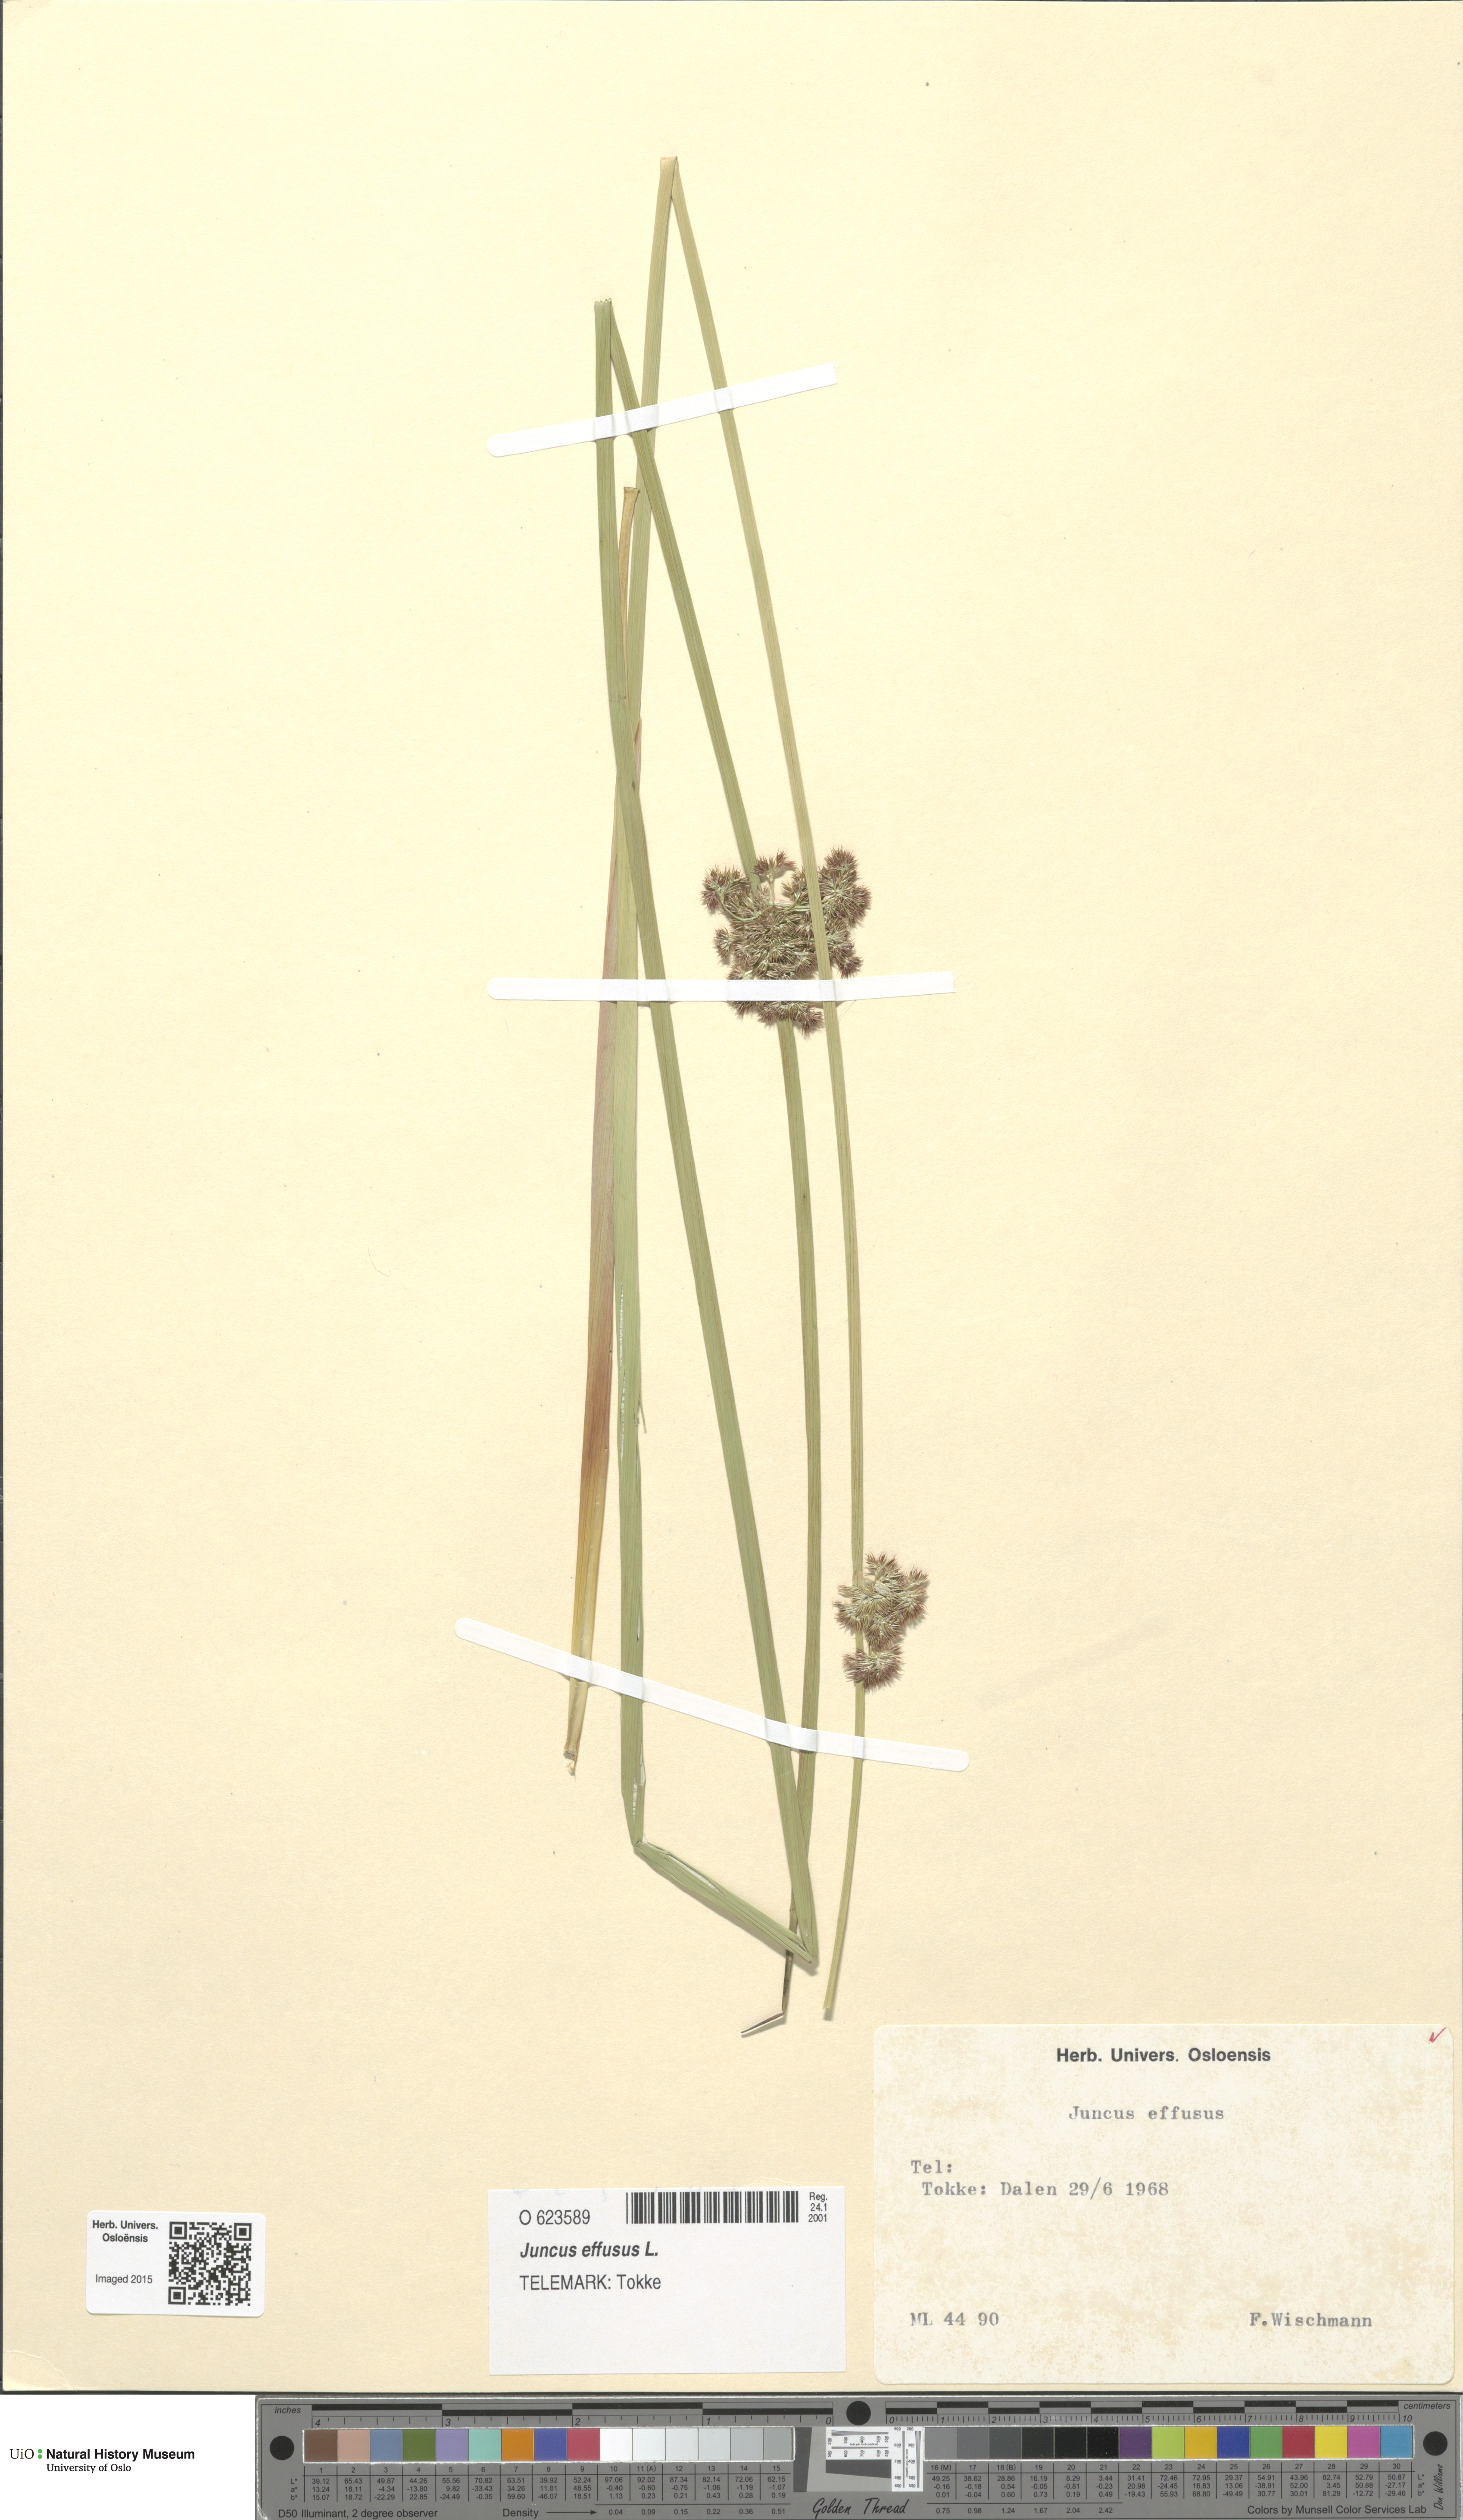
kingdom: Plantae
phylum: Tracheophyta
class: Liliopsida
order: Poales
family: Juncaceae
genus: Juncus
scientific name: Juncus effusus
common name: Soft rush
